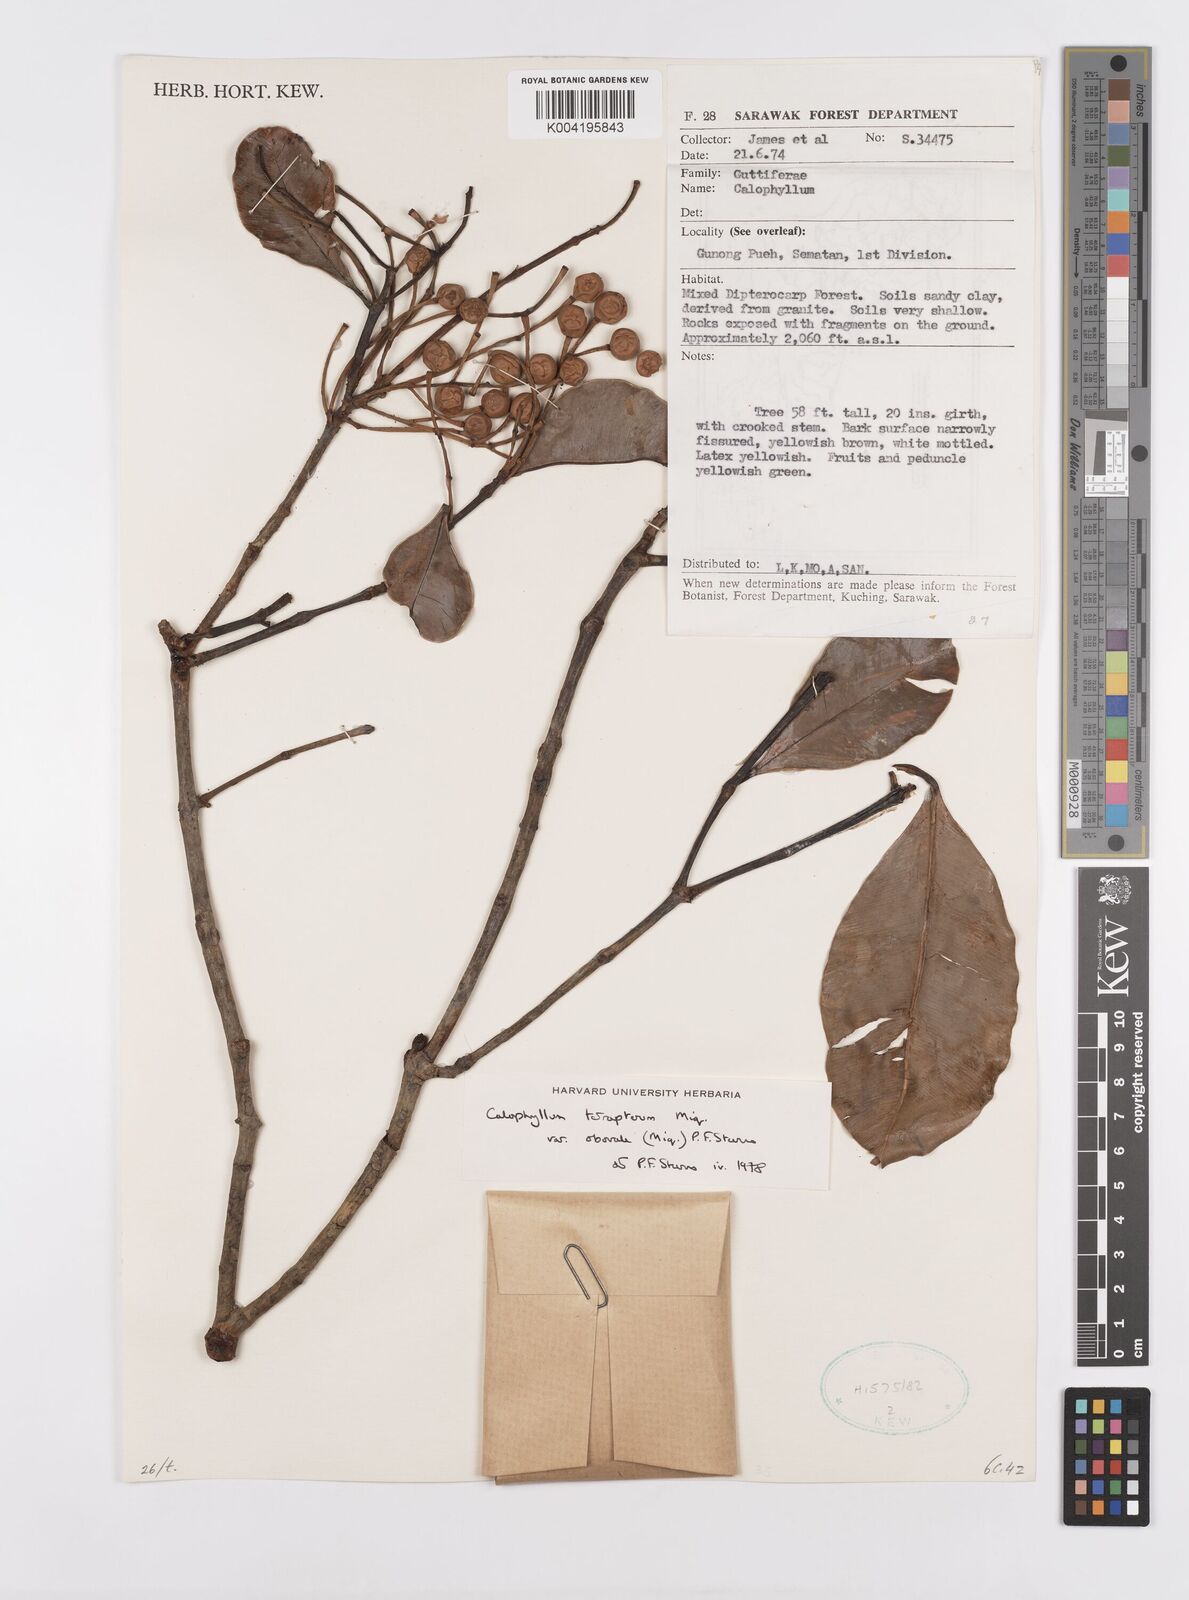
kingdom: Plantae
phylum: Tracheophyta
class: Magnoliopsida
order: Malpighiales
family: Calophyllaceae
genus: Calophyllum
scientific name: Calophyllum tetrapterum
